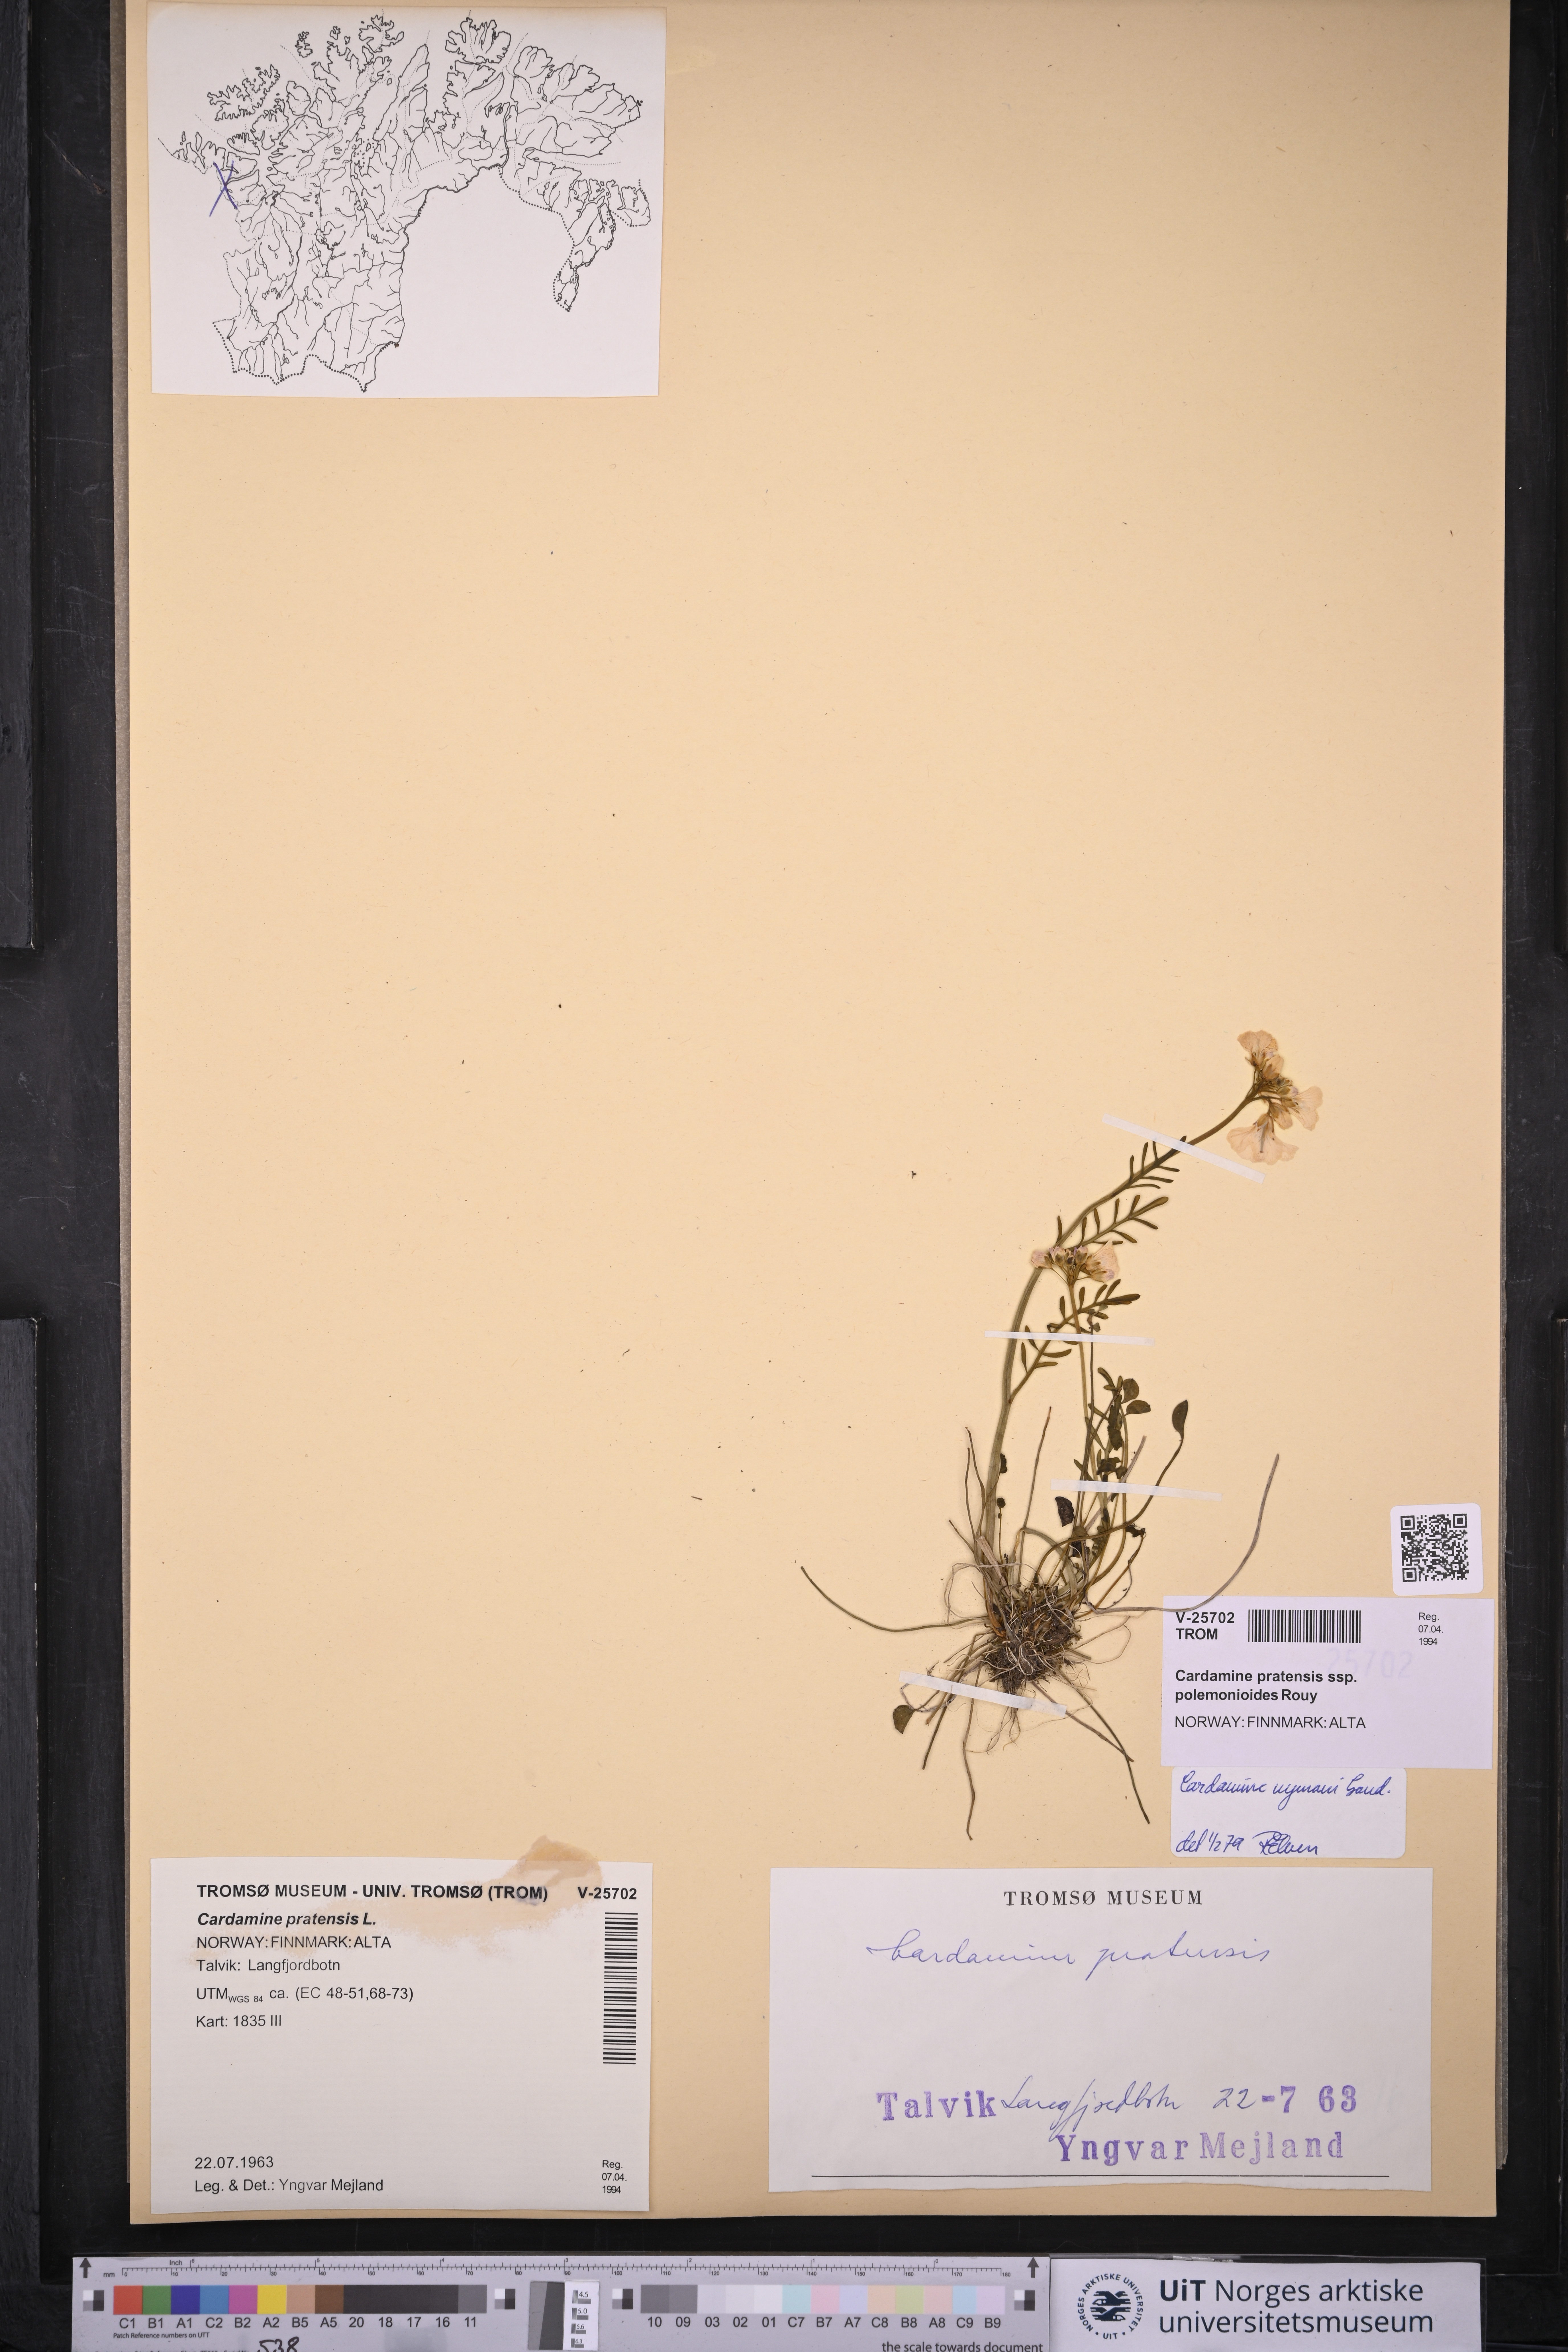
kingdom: Plantae
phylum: Tracheophyta
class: Magnoliopsida
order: Brassicales
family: Brassicaceae
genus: Cardamine
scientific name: Cardamine nymanii
